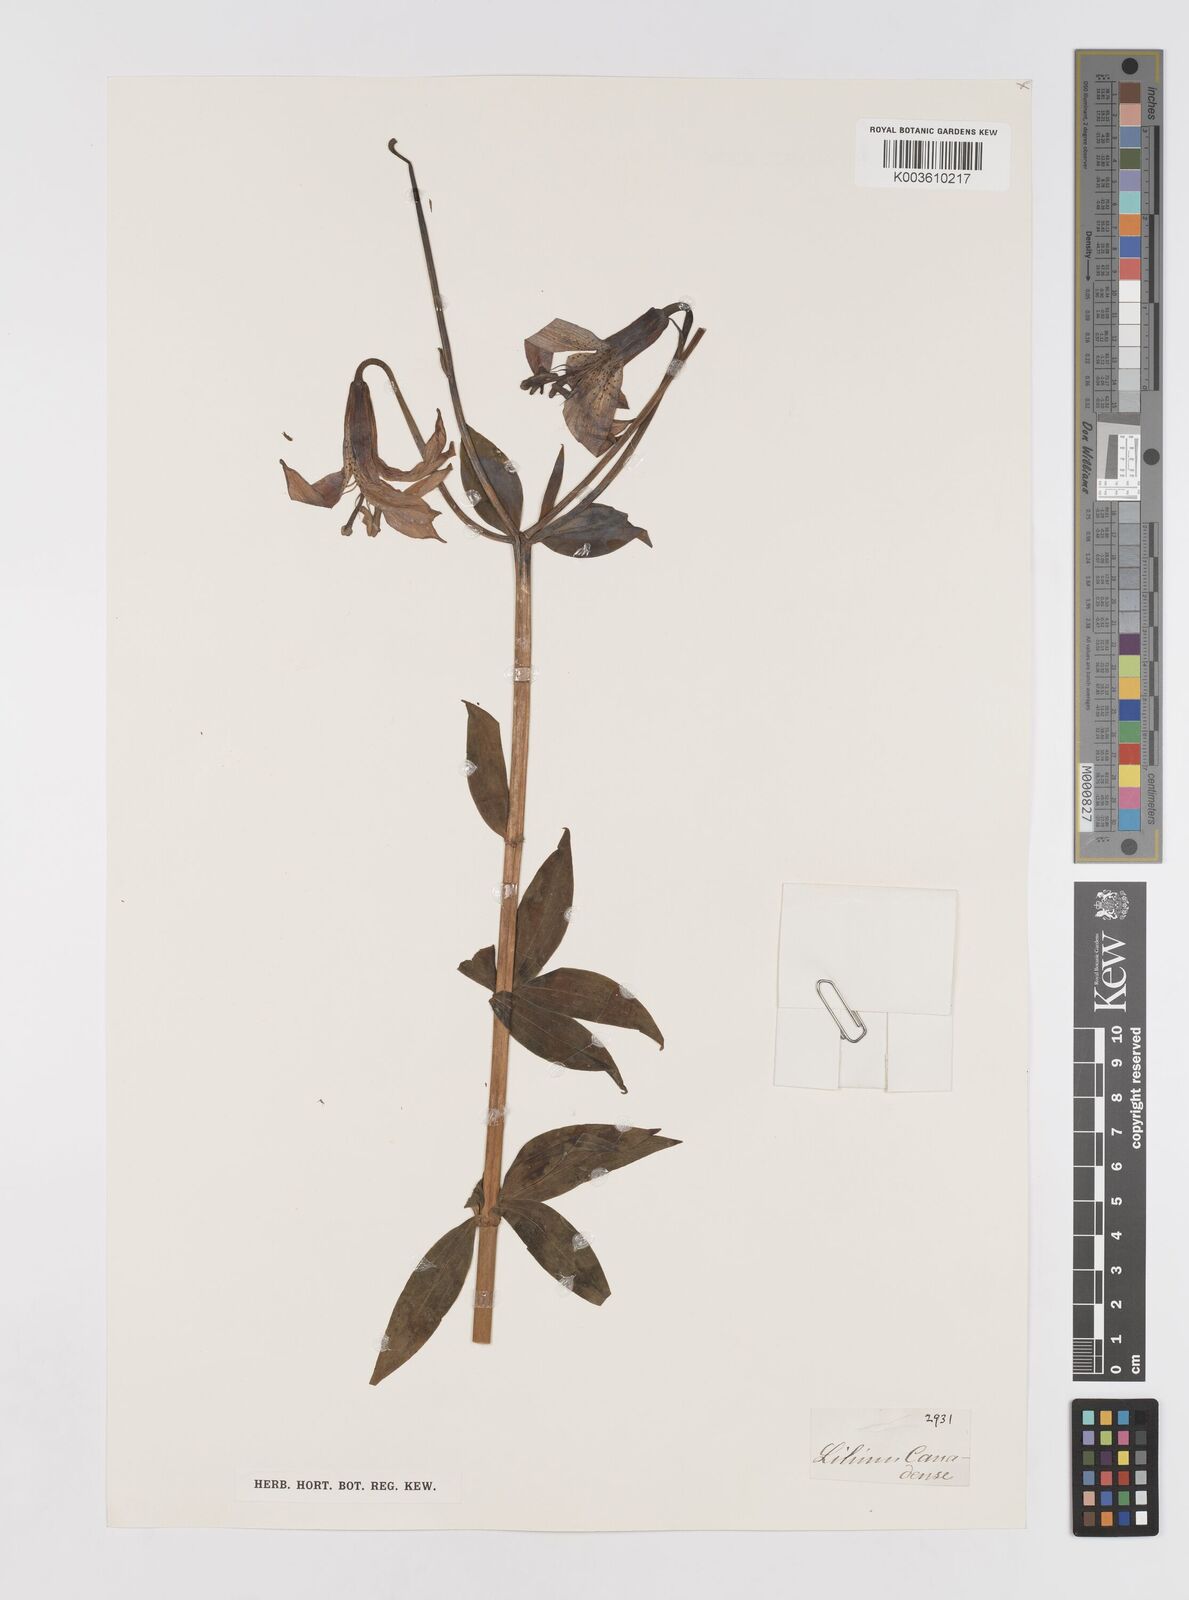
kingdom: Plantae
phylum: Tracheophyta
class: Liliopsida
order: Liliales
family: Liliaceae
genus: Lilium
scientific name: Lilium canadense
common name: Canada lily
